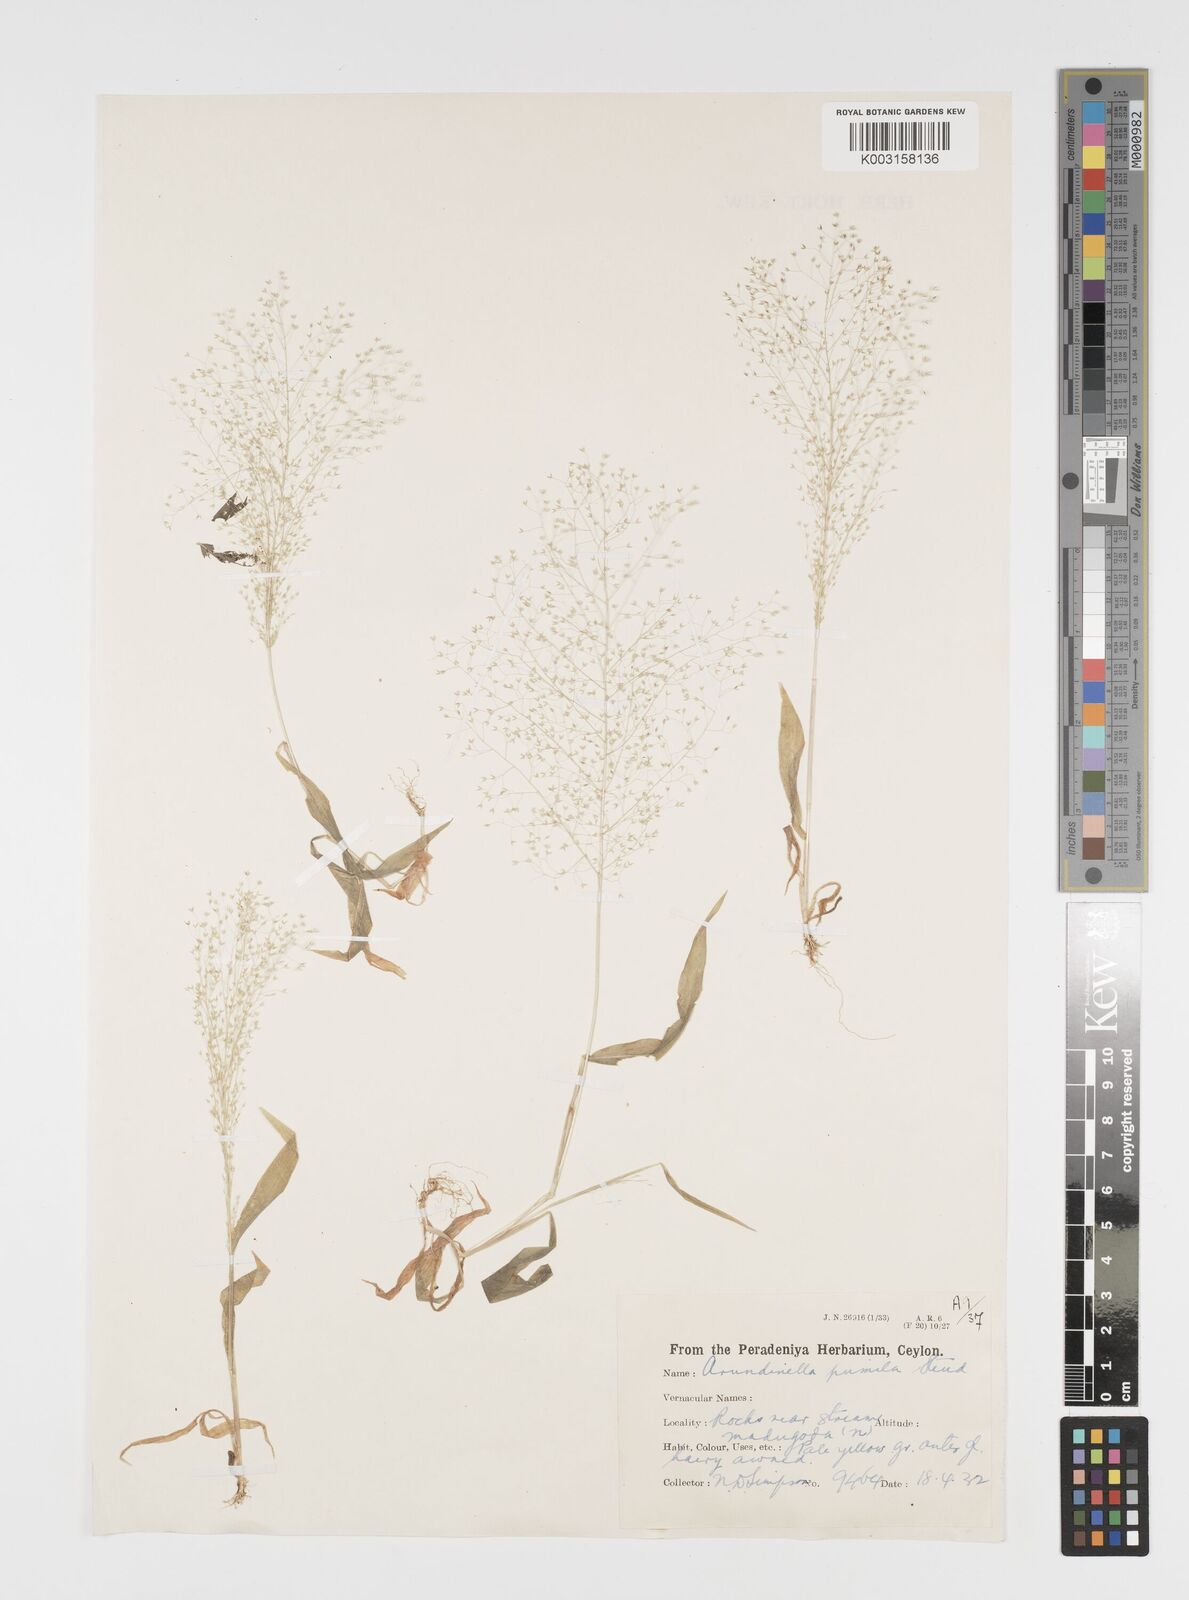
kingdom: Plantae
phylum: Tracheophyta
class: Liliopsida
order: Poales
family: Poaceae
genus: Arundinella
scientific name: Arundinella pumila
